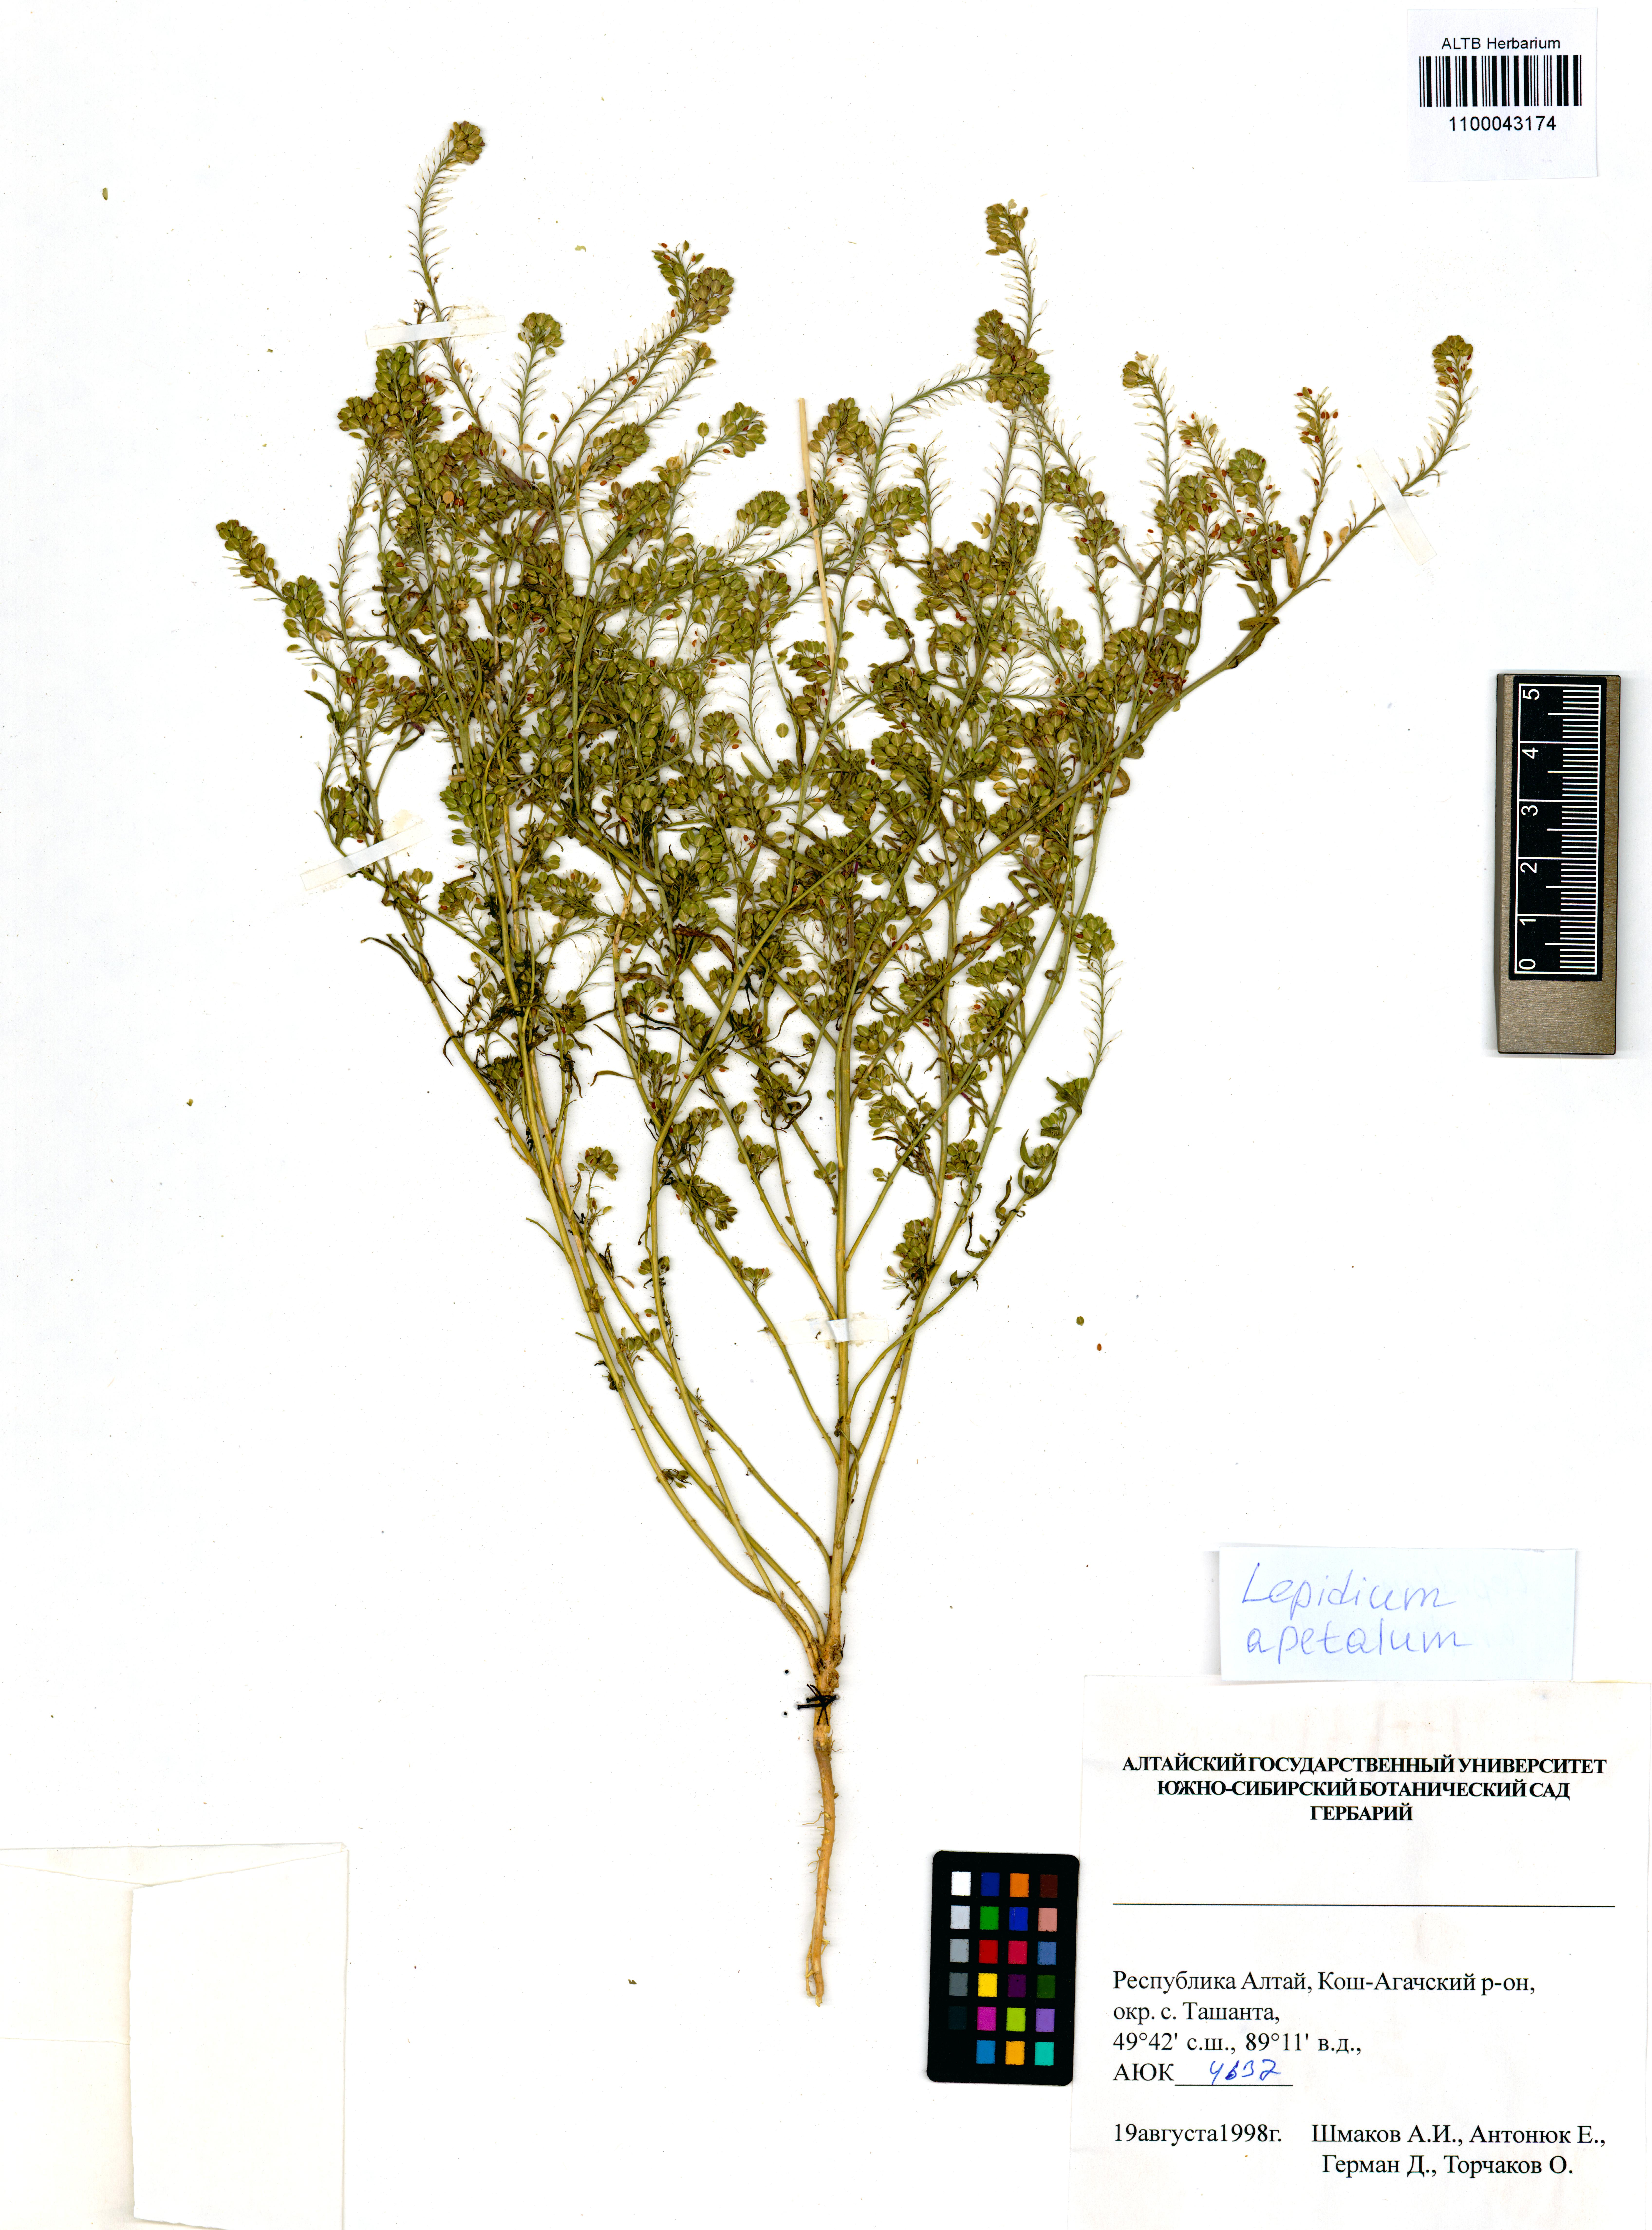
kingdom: Plantae
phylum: Tracheophyta
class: Magnoliopsida
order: Brassicales
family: Brassicaceae
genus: Lepidium
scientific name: Lepidium apetalum
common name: Pepperweed
